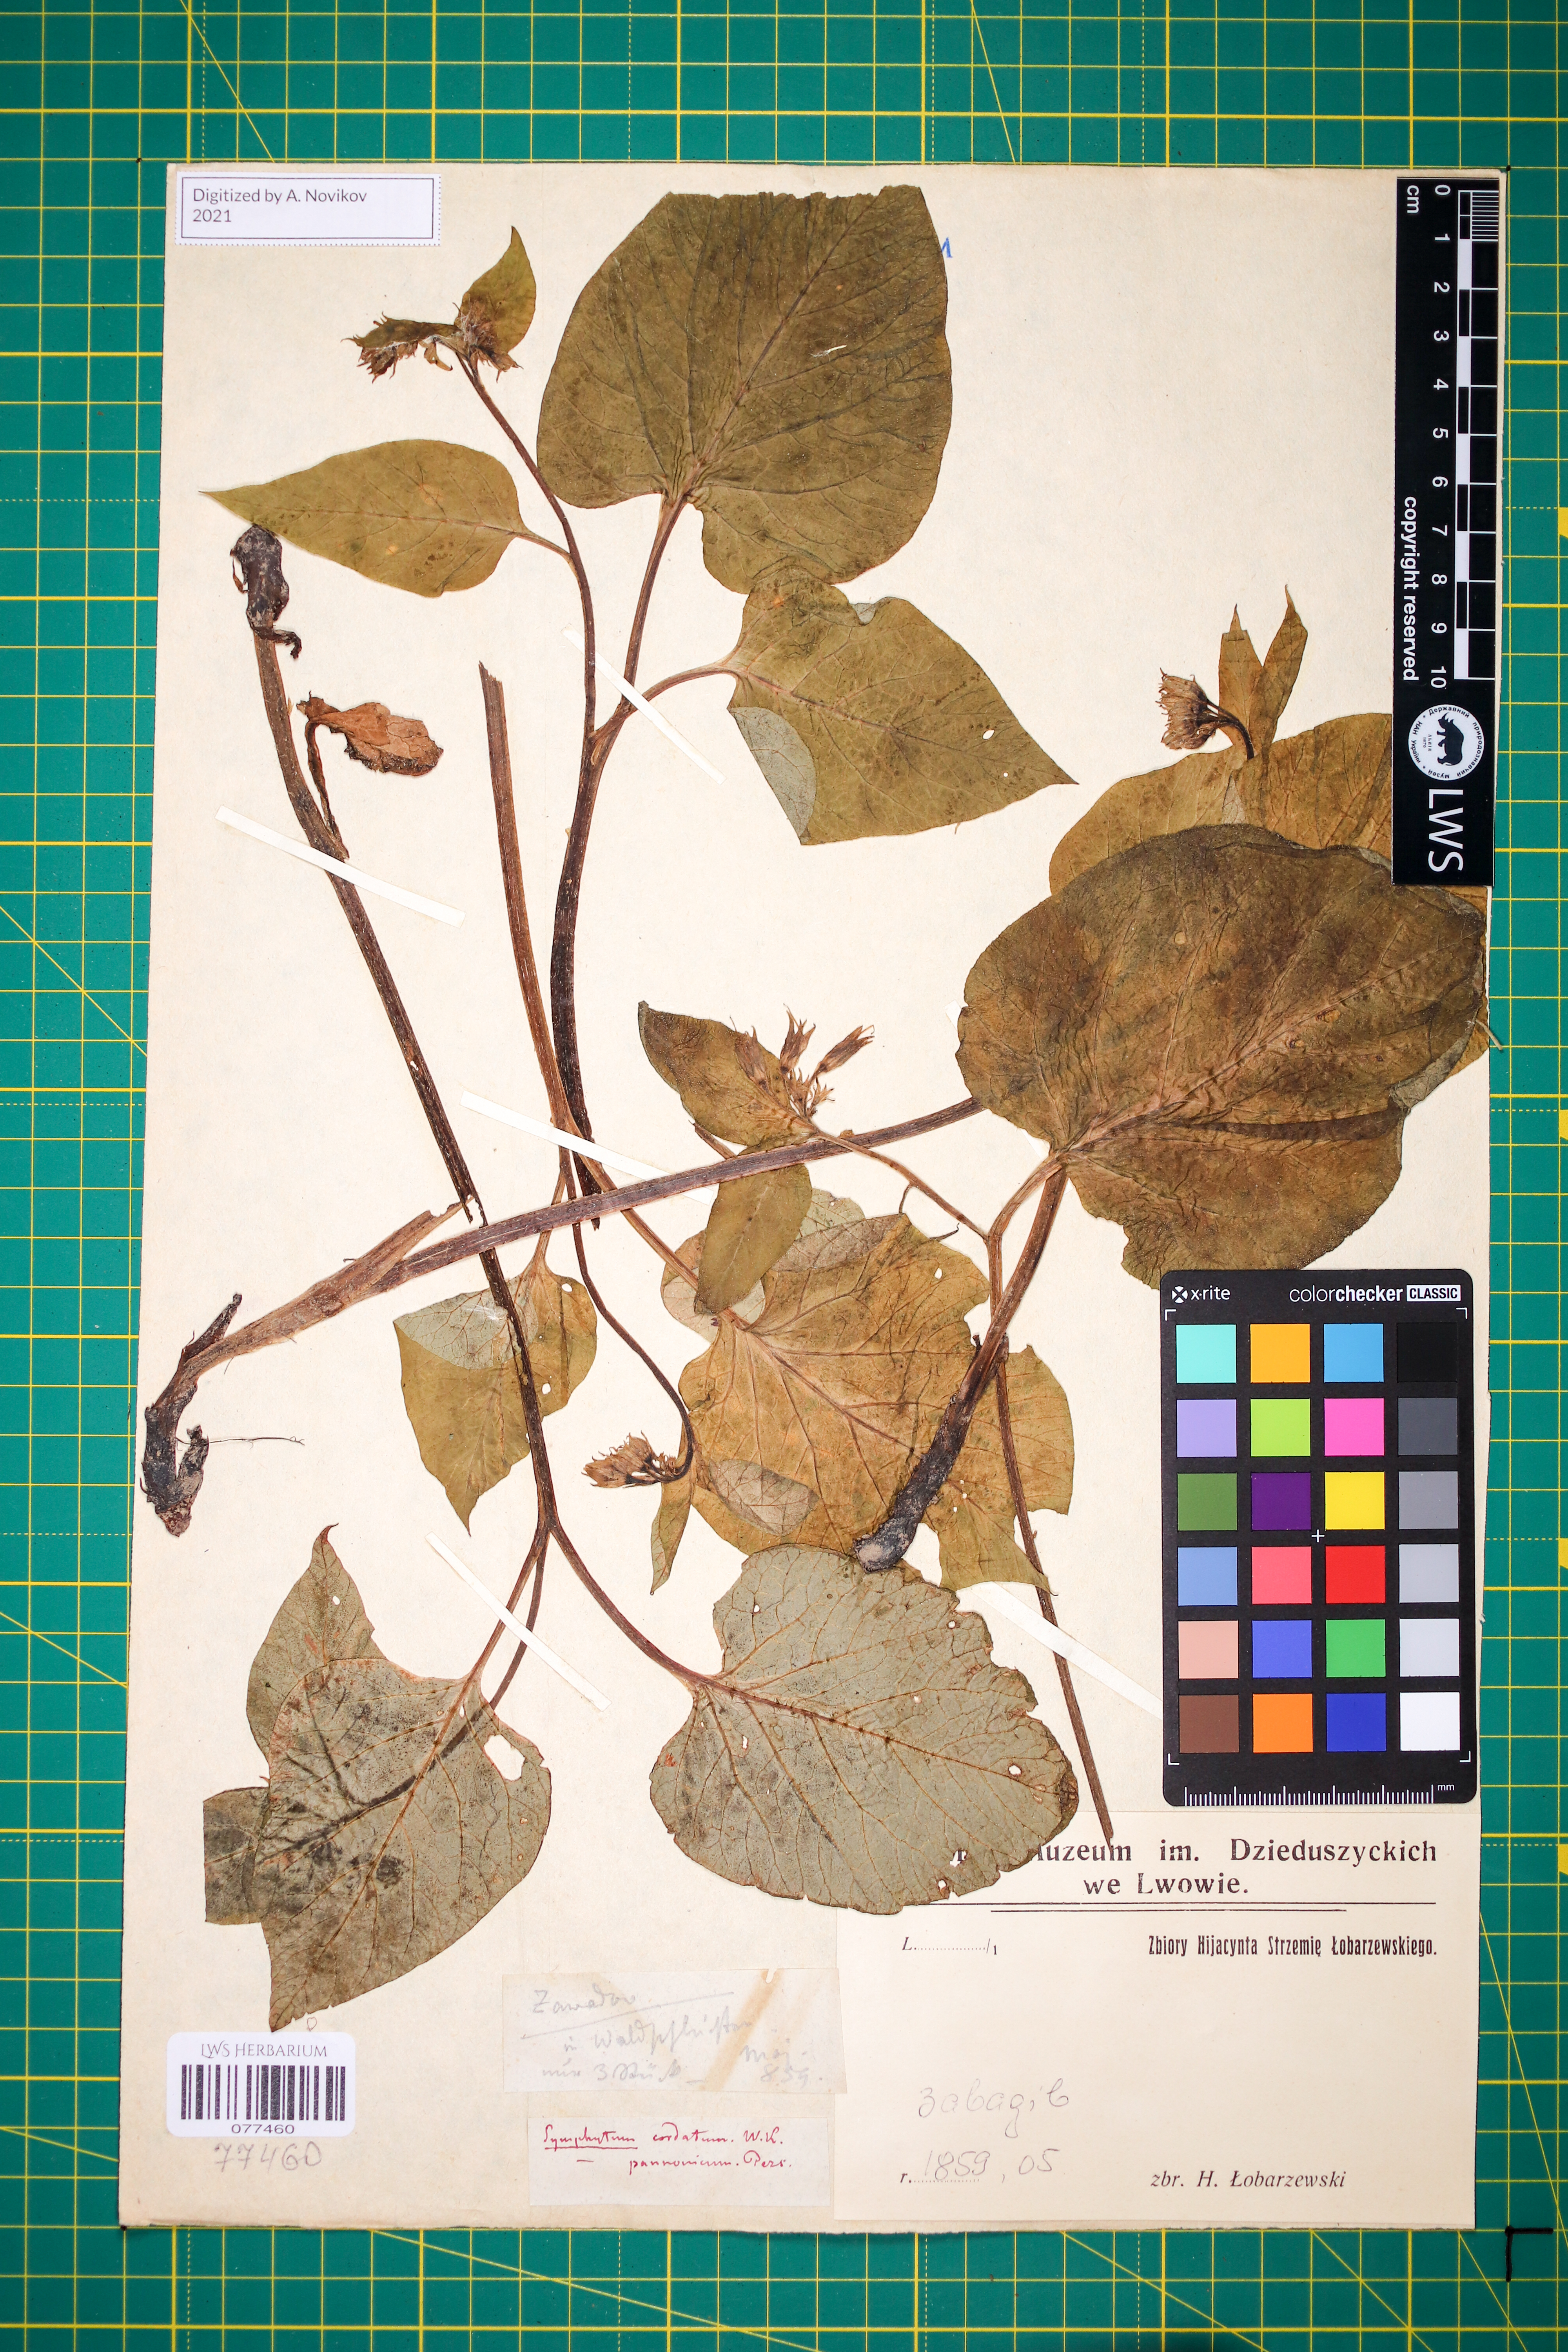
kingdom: Plantae
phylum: Tracheophyta
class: Magnoliopsida
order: Boraginales
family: Boraginaceae
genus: Symphytum
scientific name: Symphytum cordatum
